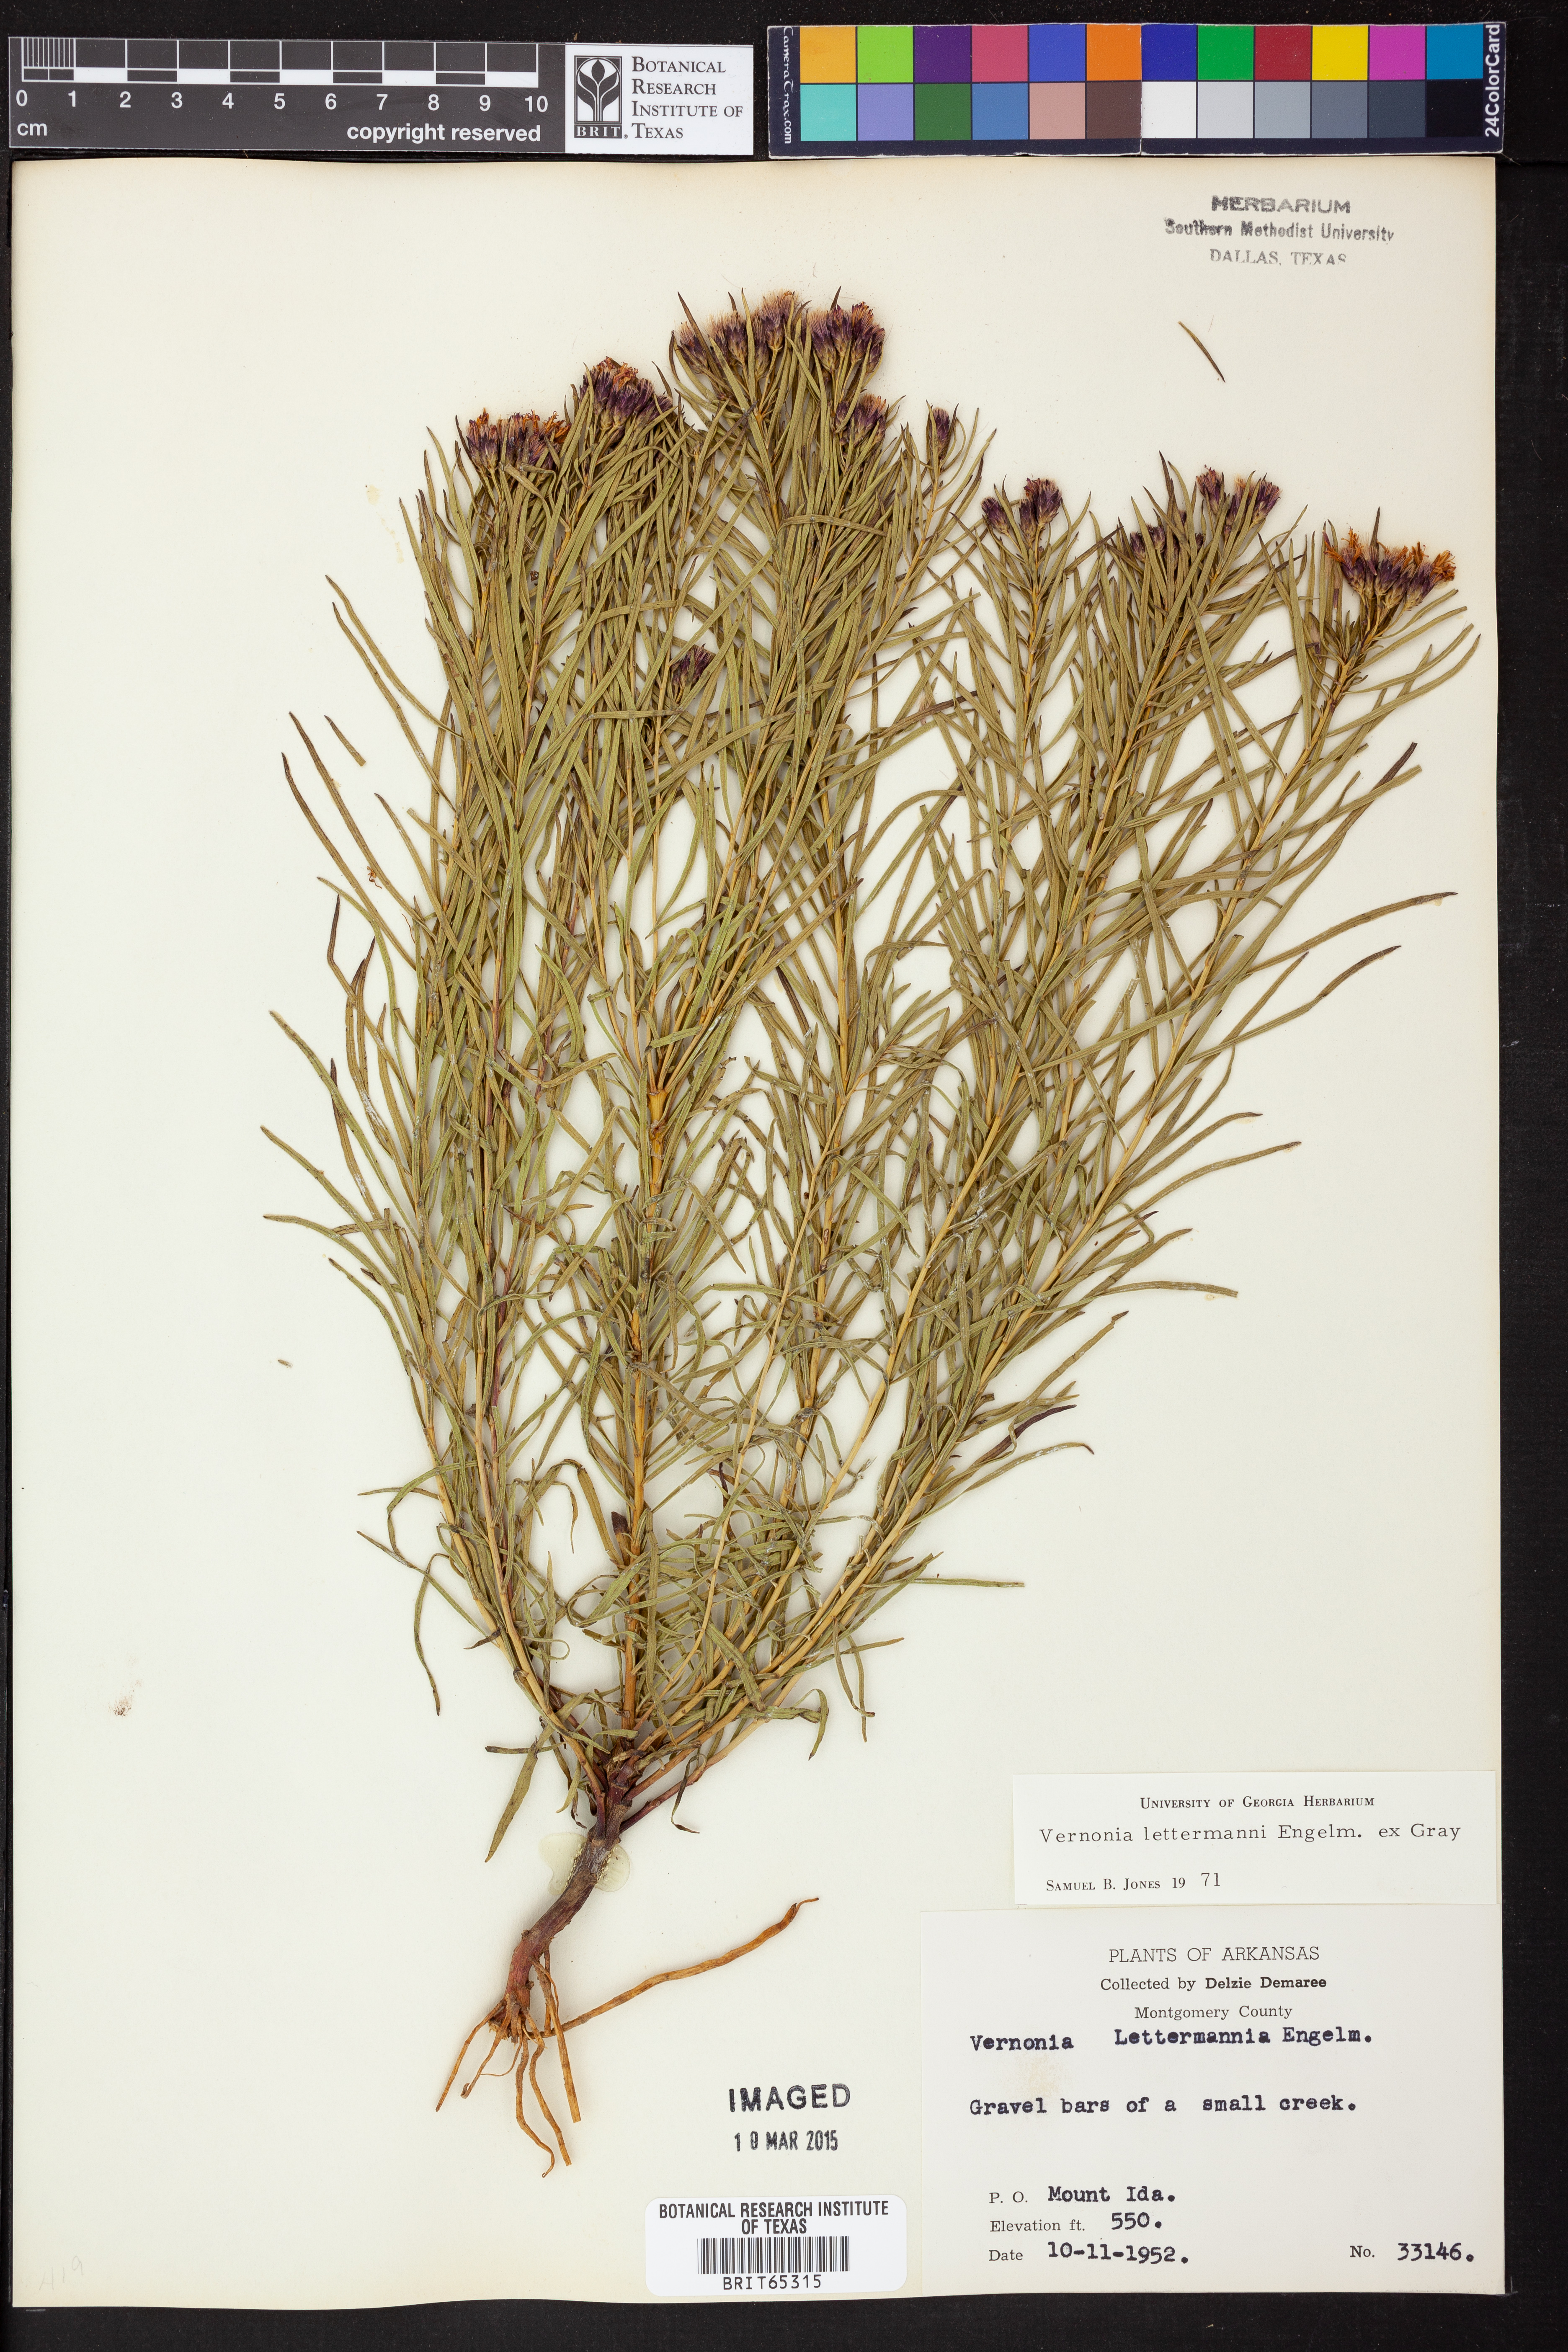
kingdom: Plantae
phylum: Tracheophyta
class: Magnoliopsida
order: Asterales
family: Asteraceae
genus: Vernonia
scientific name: Vernonia lettermannii
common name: Lettermann's ironweed
